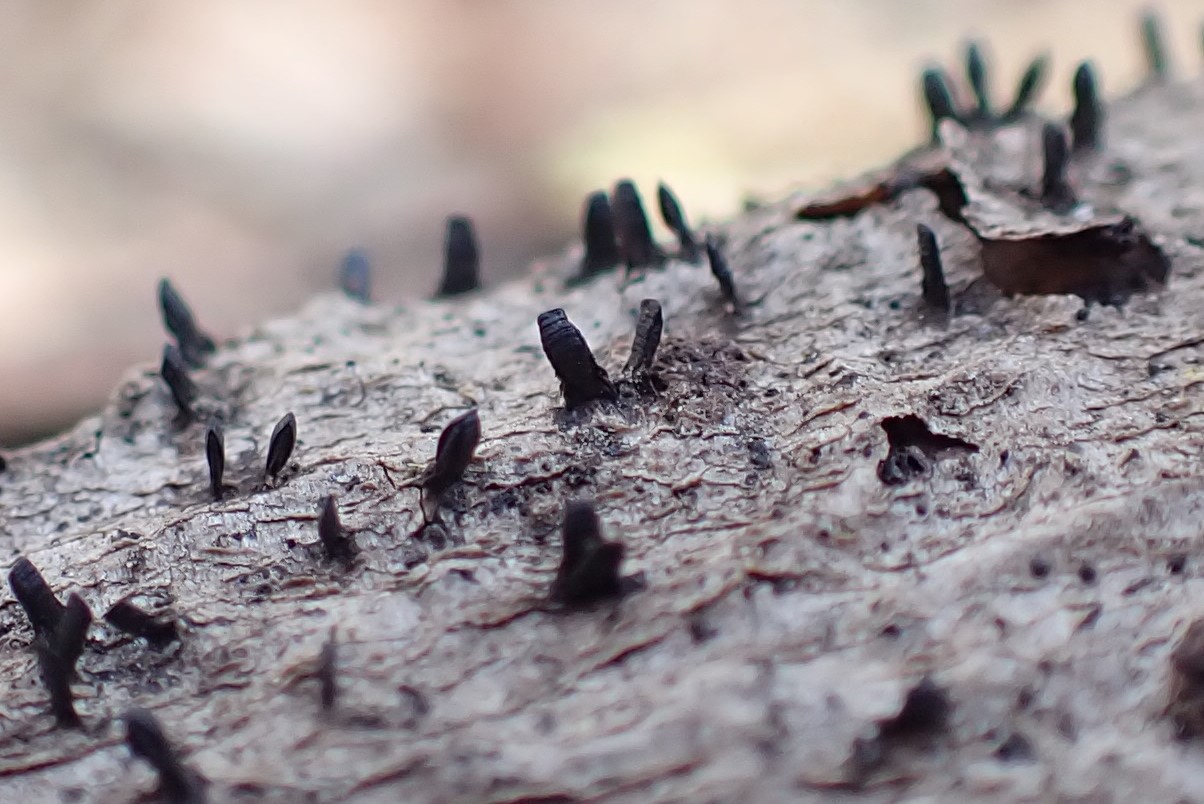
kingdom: Fungi
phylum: Ascomycota
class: Eurotiomycetes
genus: Glyphium
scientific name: Glyphium elatum
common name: kuløkse
